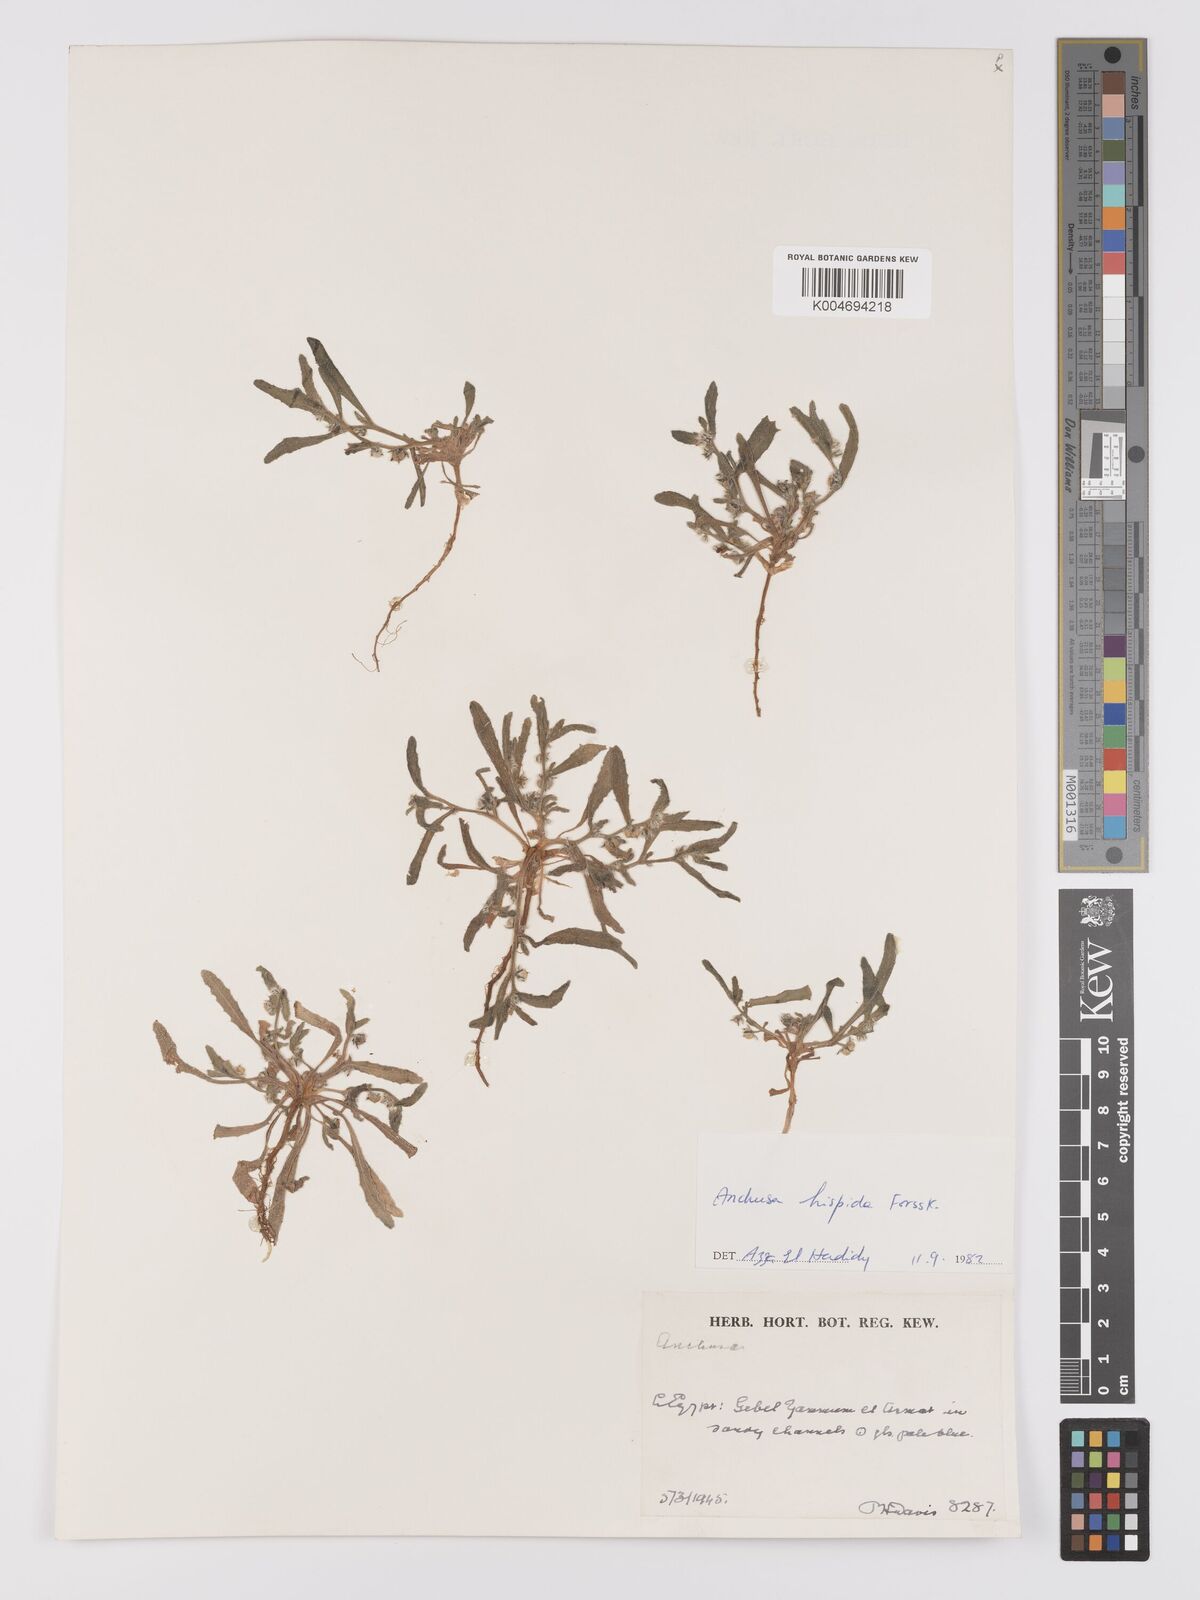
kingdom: Plantae
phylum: Tracheophyta
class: Magnoliopsida
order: Boraginales
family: Boraginaceae
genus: Gastrocotyle
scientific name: Gastrocotyle hispida
